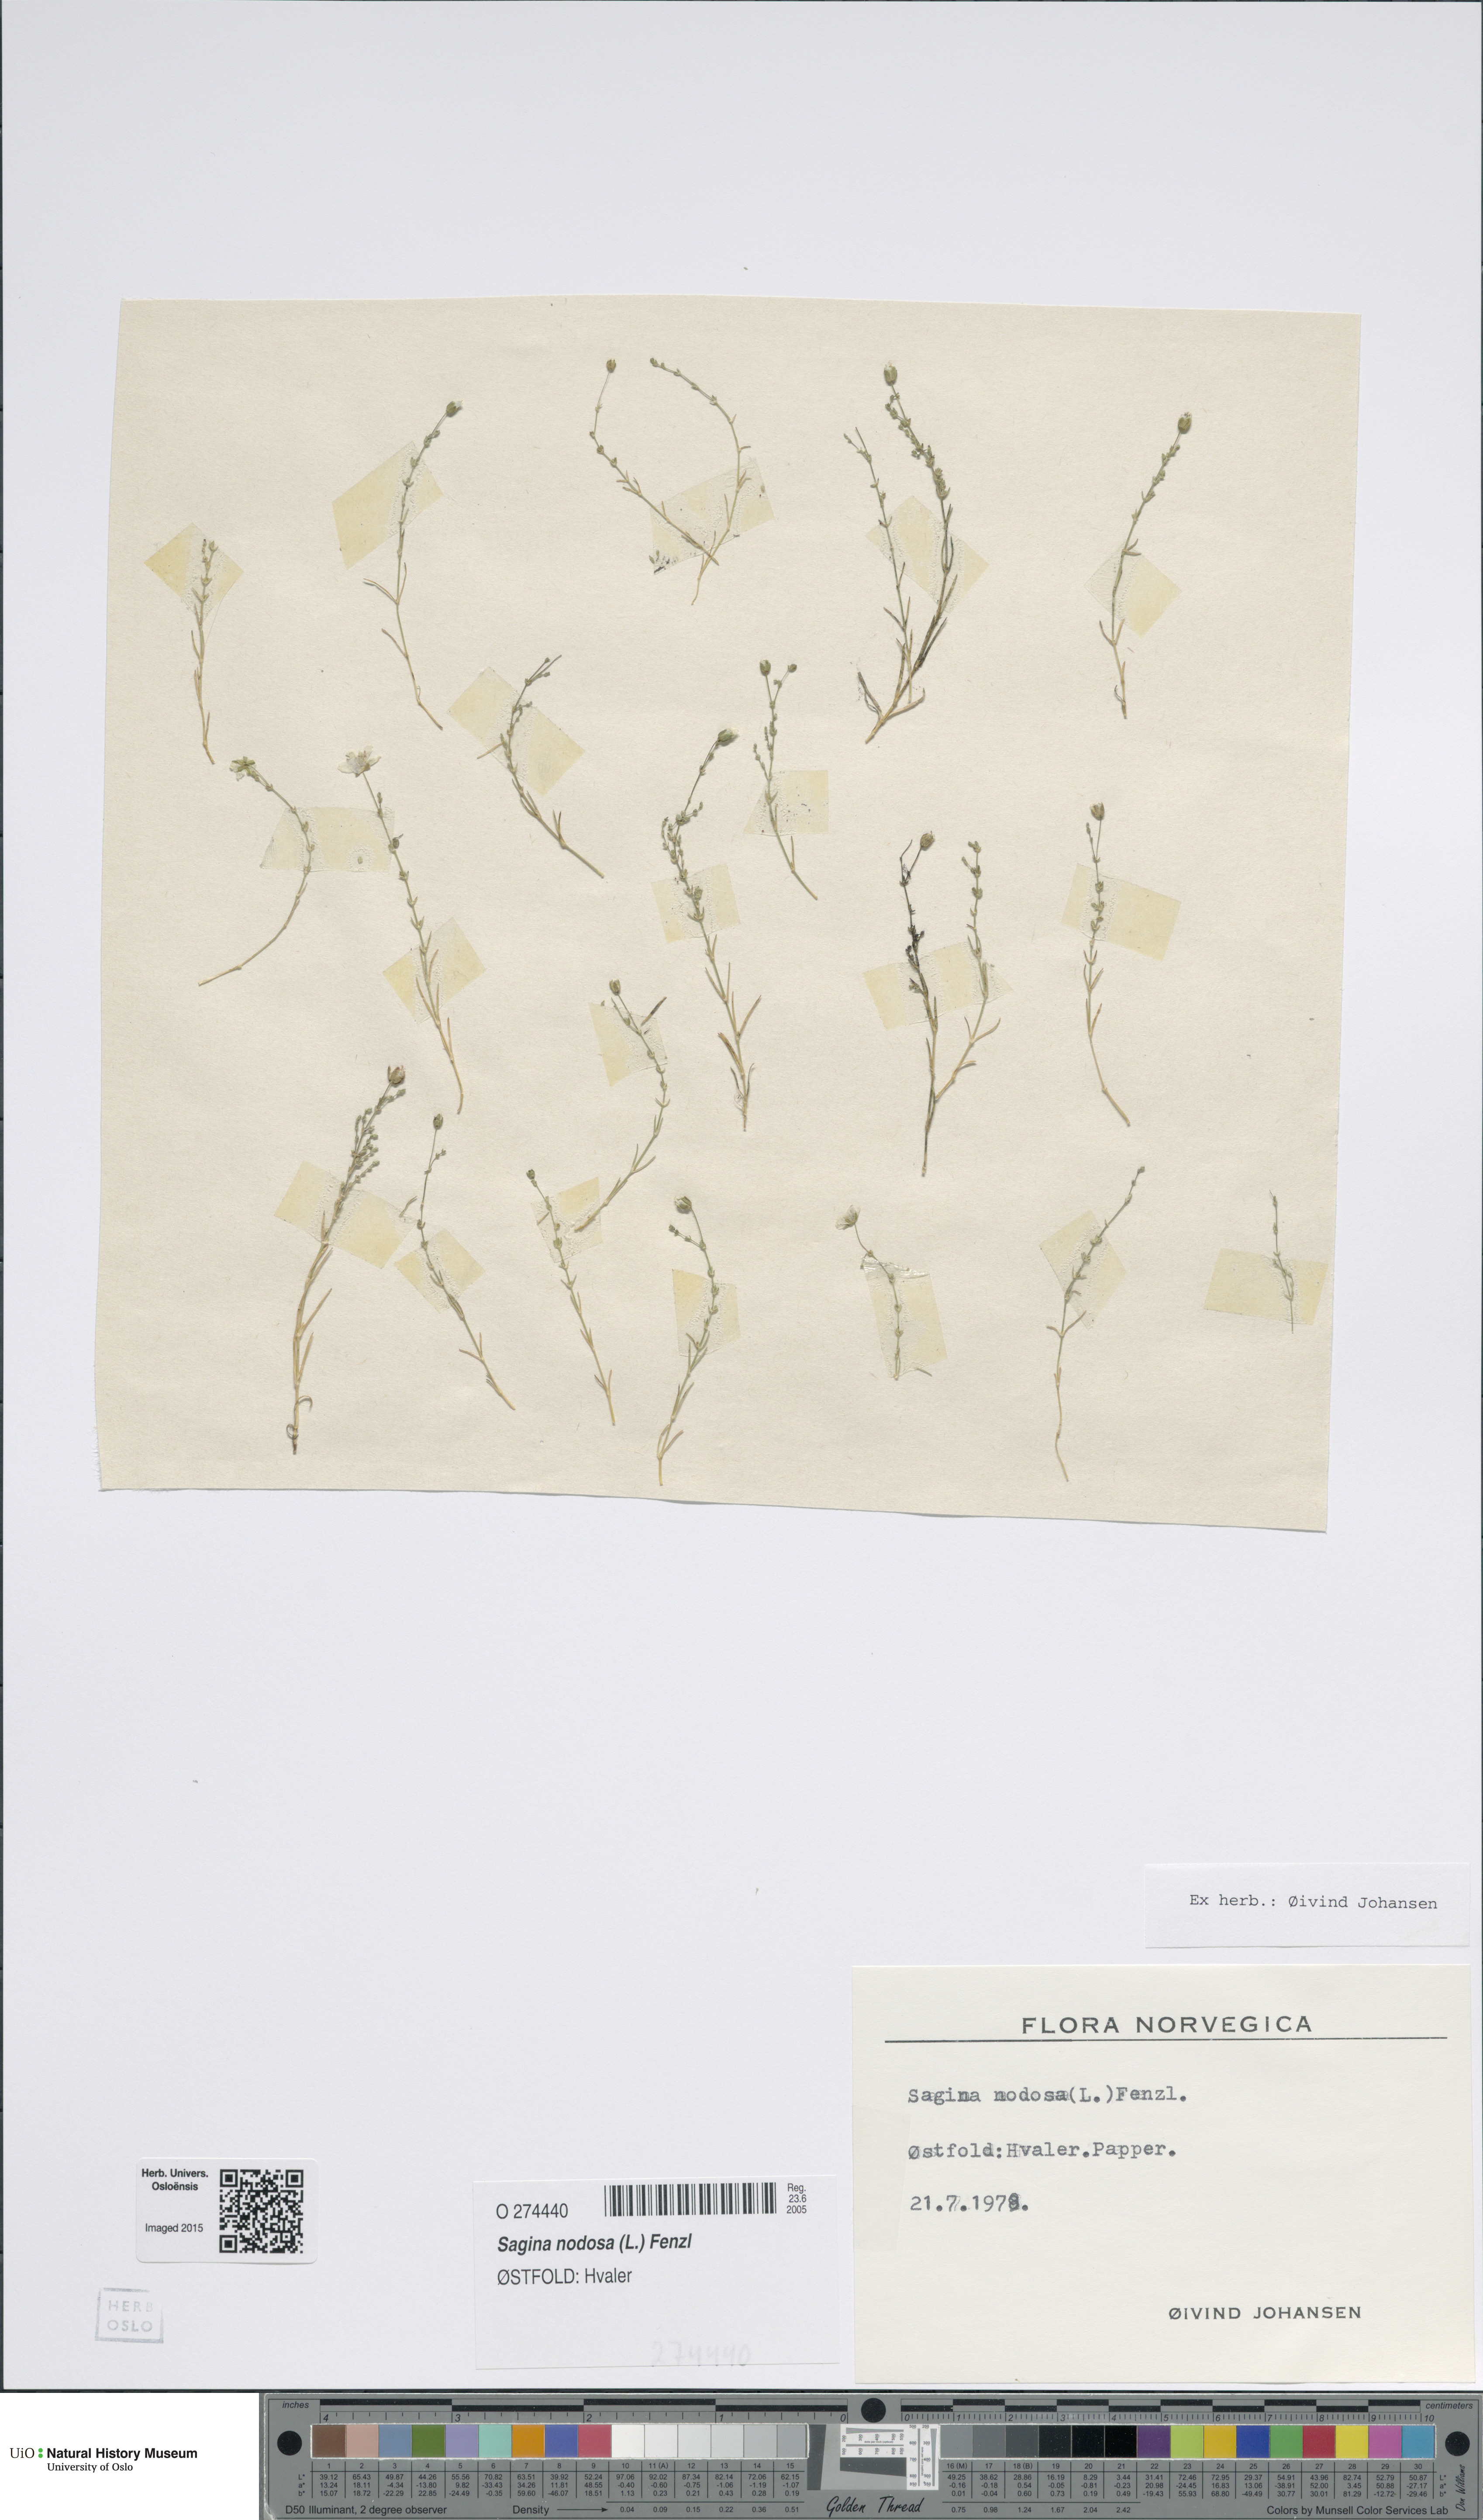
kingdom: Plantae
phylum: Tracheophyta
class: Magnoliopsida
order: Caryophyllales
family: Caryophyllaceae
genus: Sagina
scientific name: Sagina nodosa
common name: Knotted pearlwort
